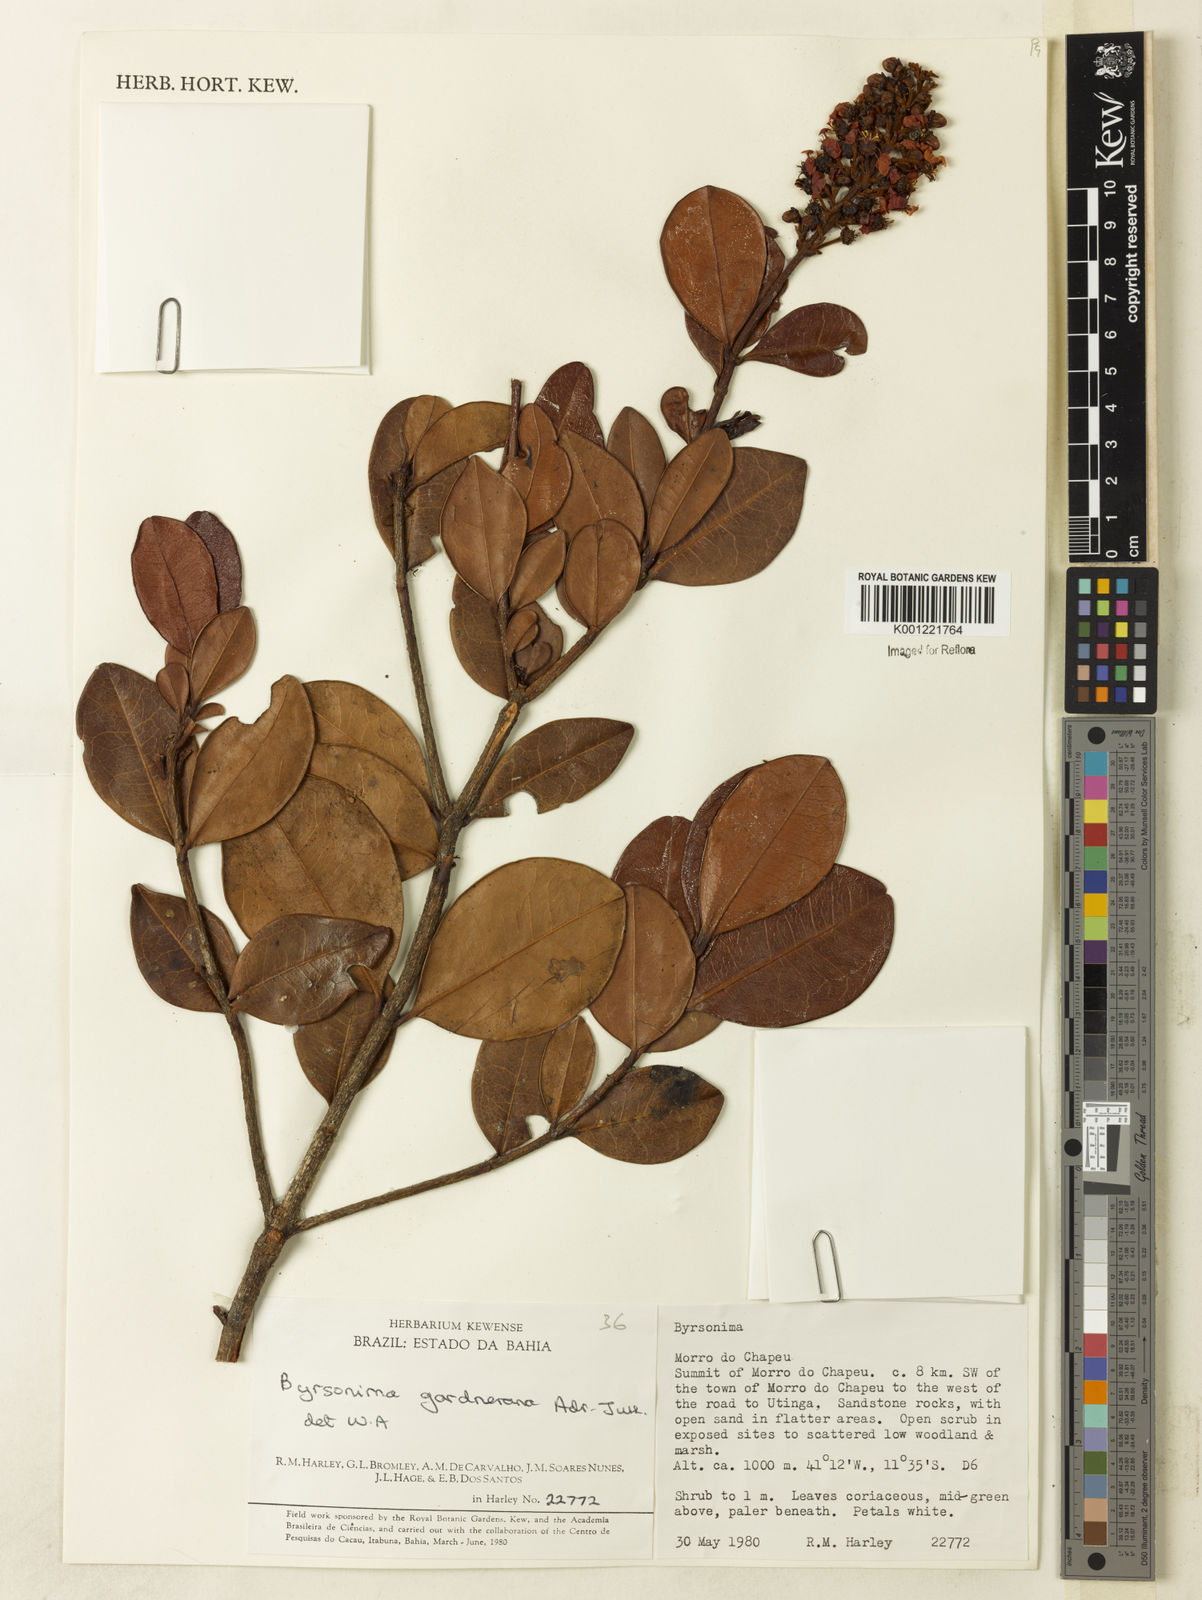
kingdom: Plantae
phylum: Tracheophyta
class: Magnoliopsida
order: Malpighiales
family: Malpighiaceae
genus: Byrsonima
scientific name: Byrsonima gardneriana
